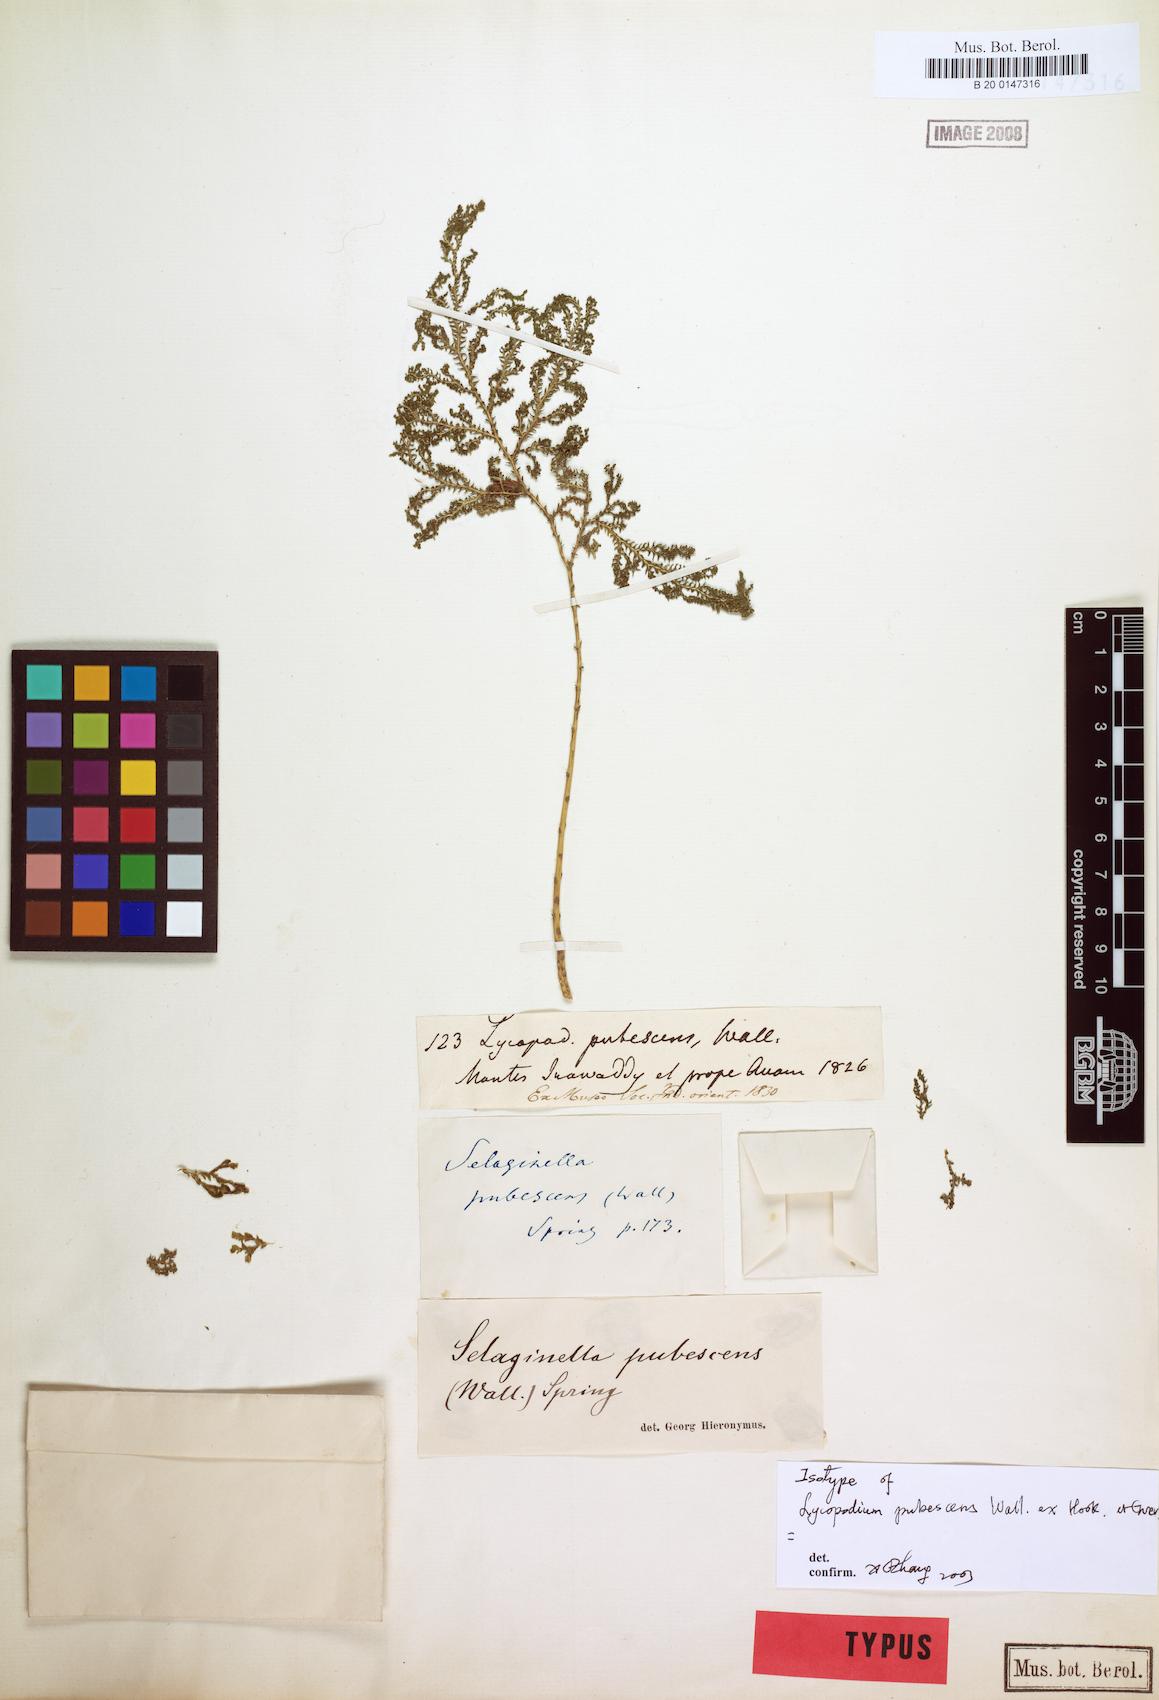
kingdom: Plantae
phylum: Tracheophyta
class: Lycopodiopsida
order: Selaginellales
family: Selaginellaceae
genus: Selaginella
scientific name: Selaginella pubescens
